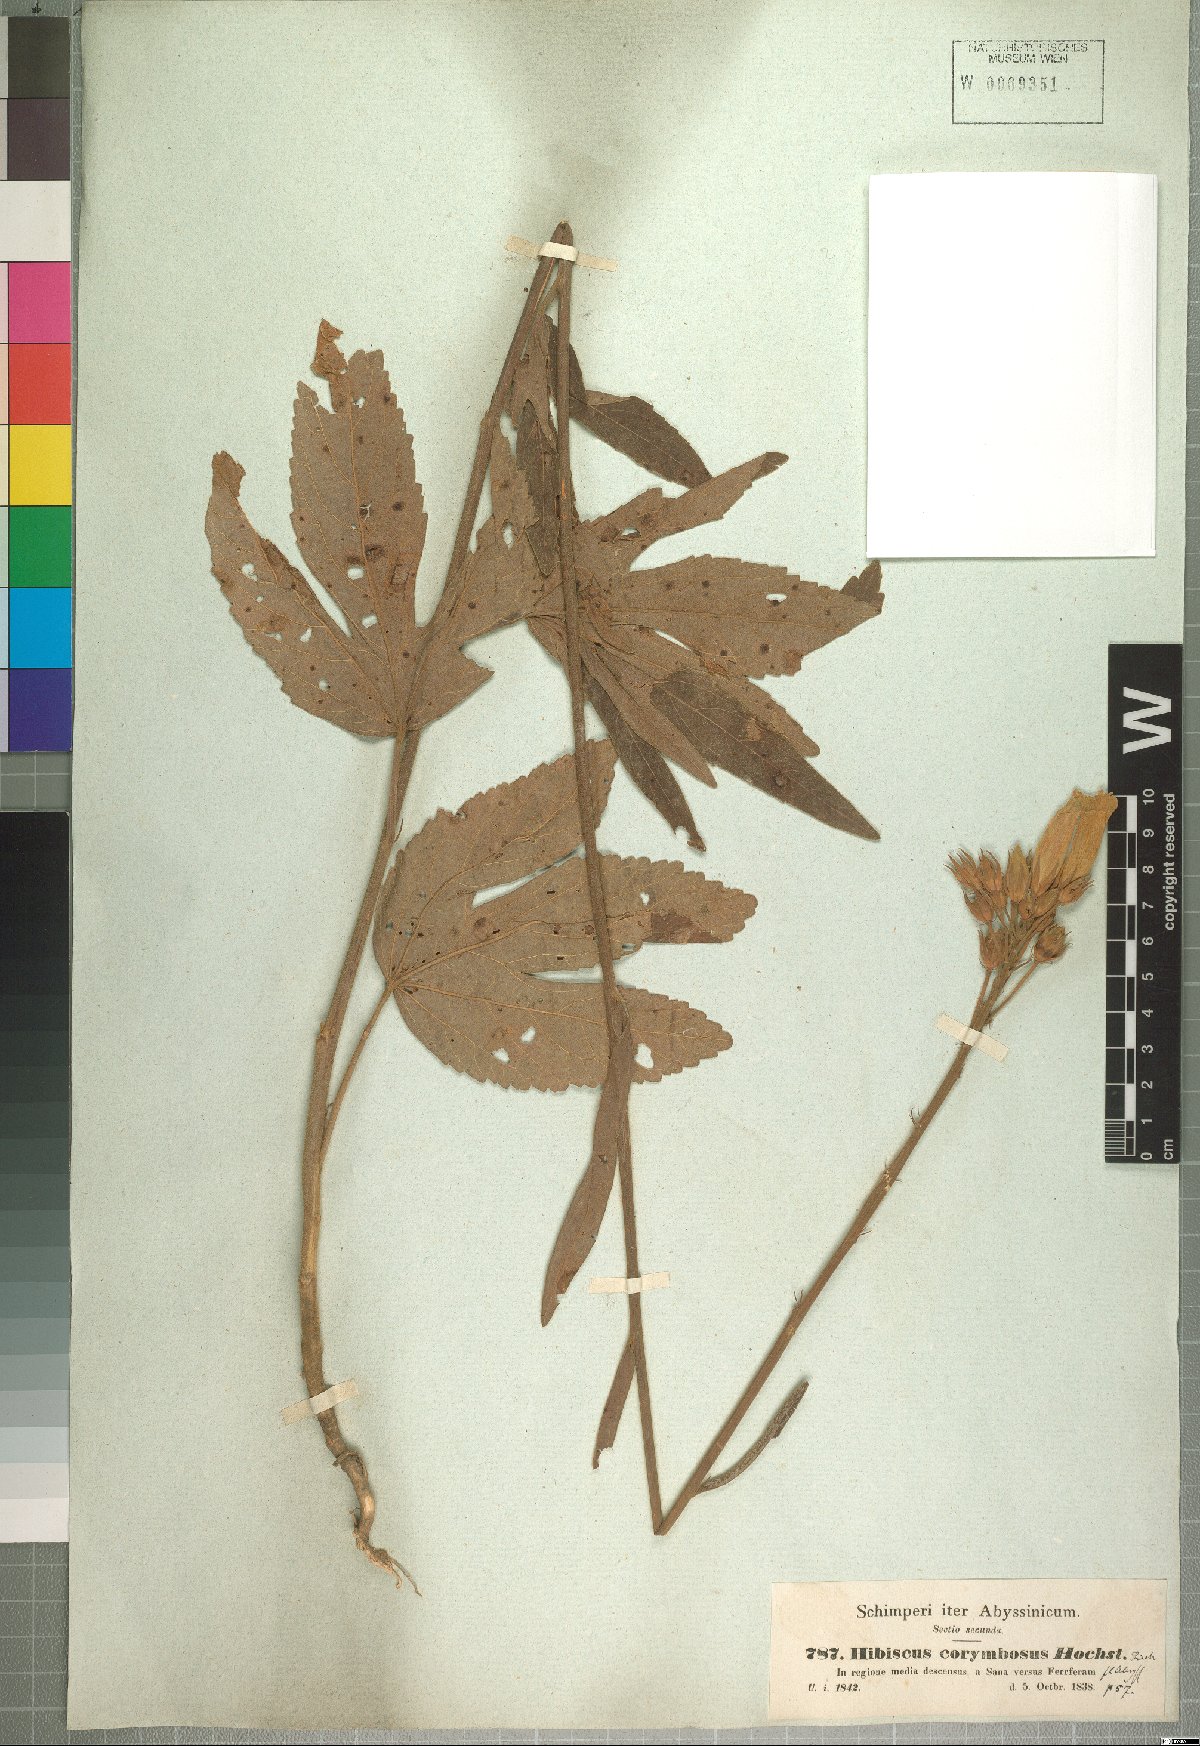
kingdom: Plantae
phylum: Tracheophyta
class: Magnoliopsida
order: Malvales
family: Malvaceae
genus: Hibiscus
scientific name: Hibiscus corymbosus
